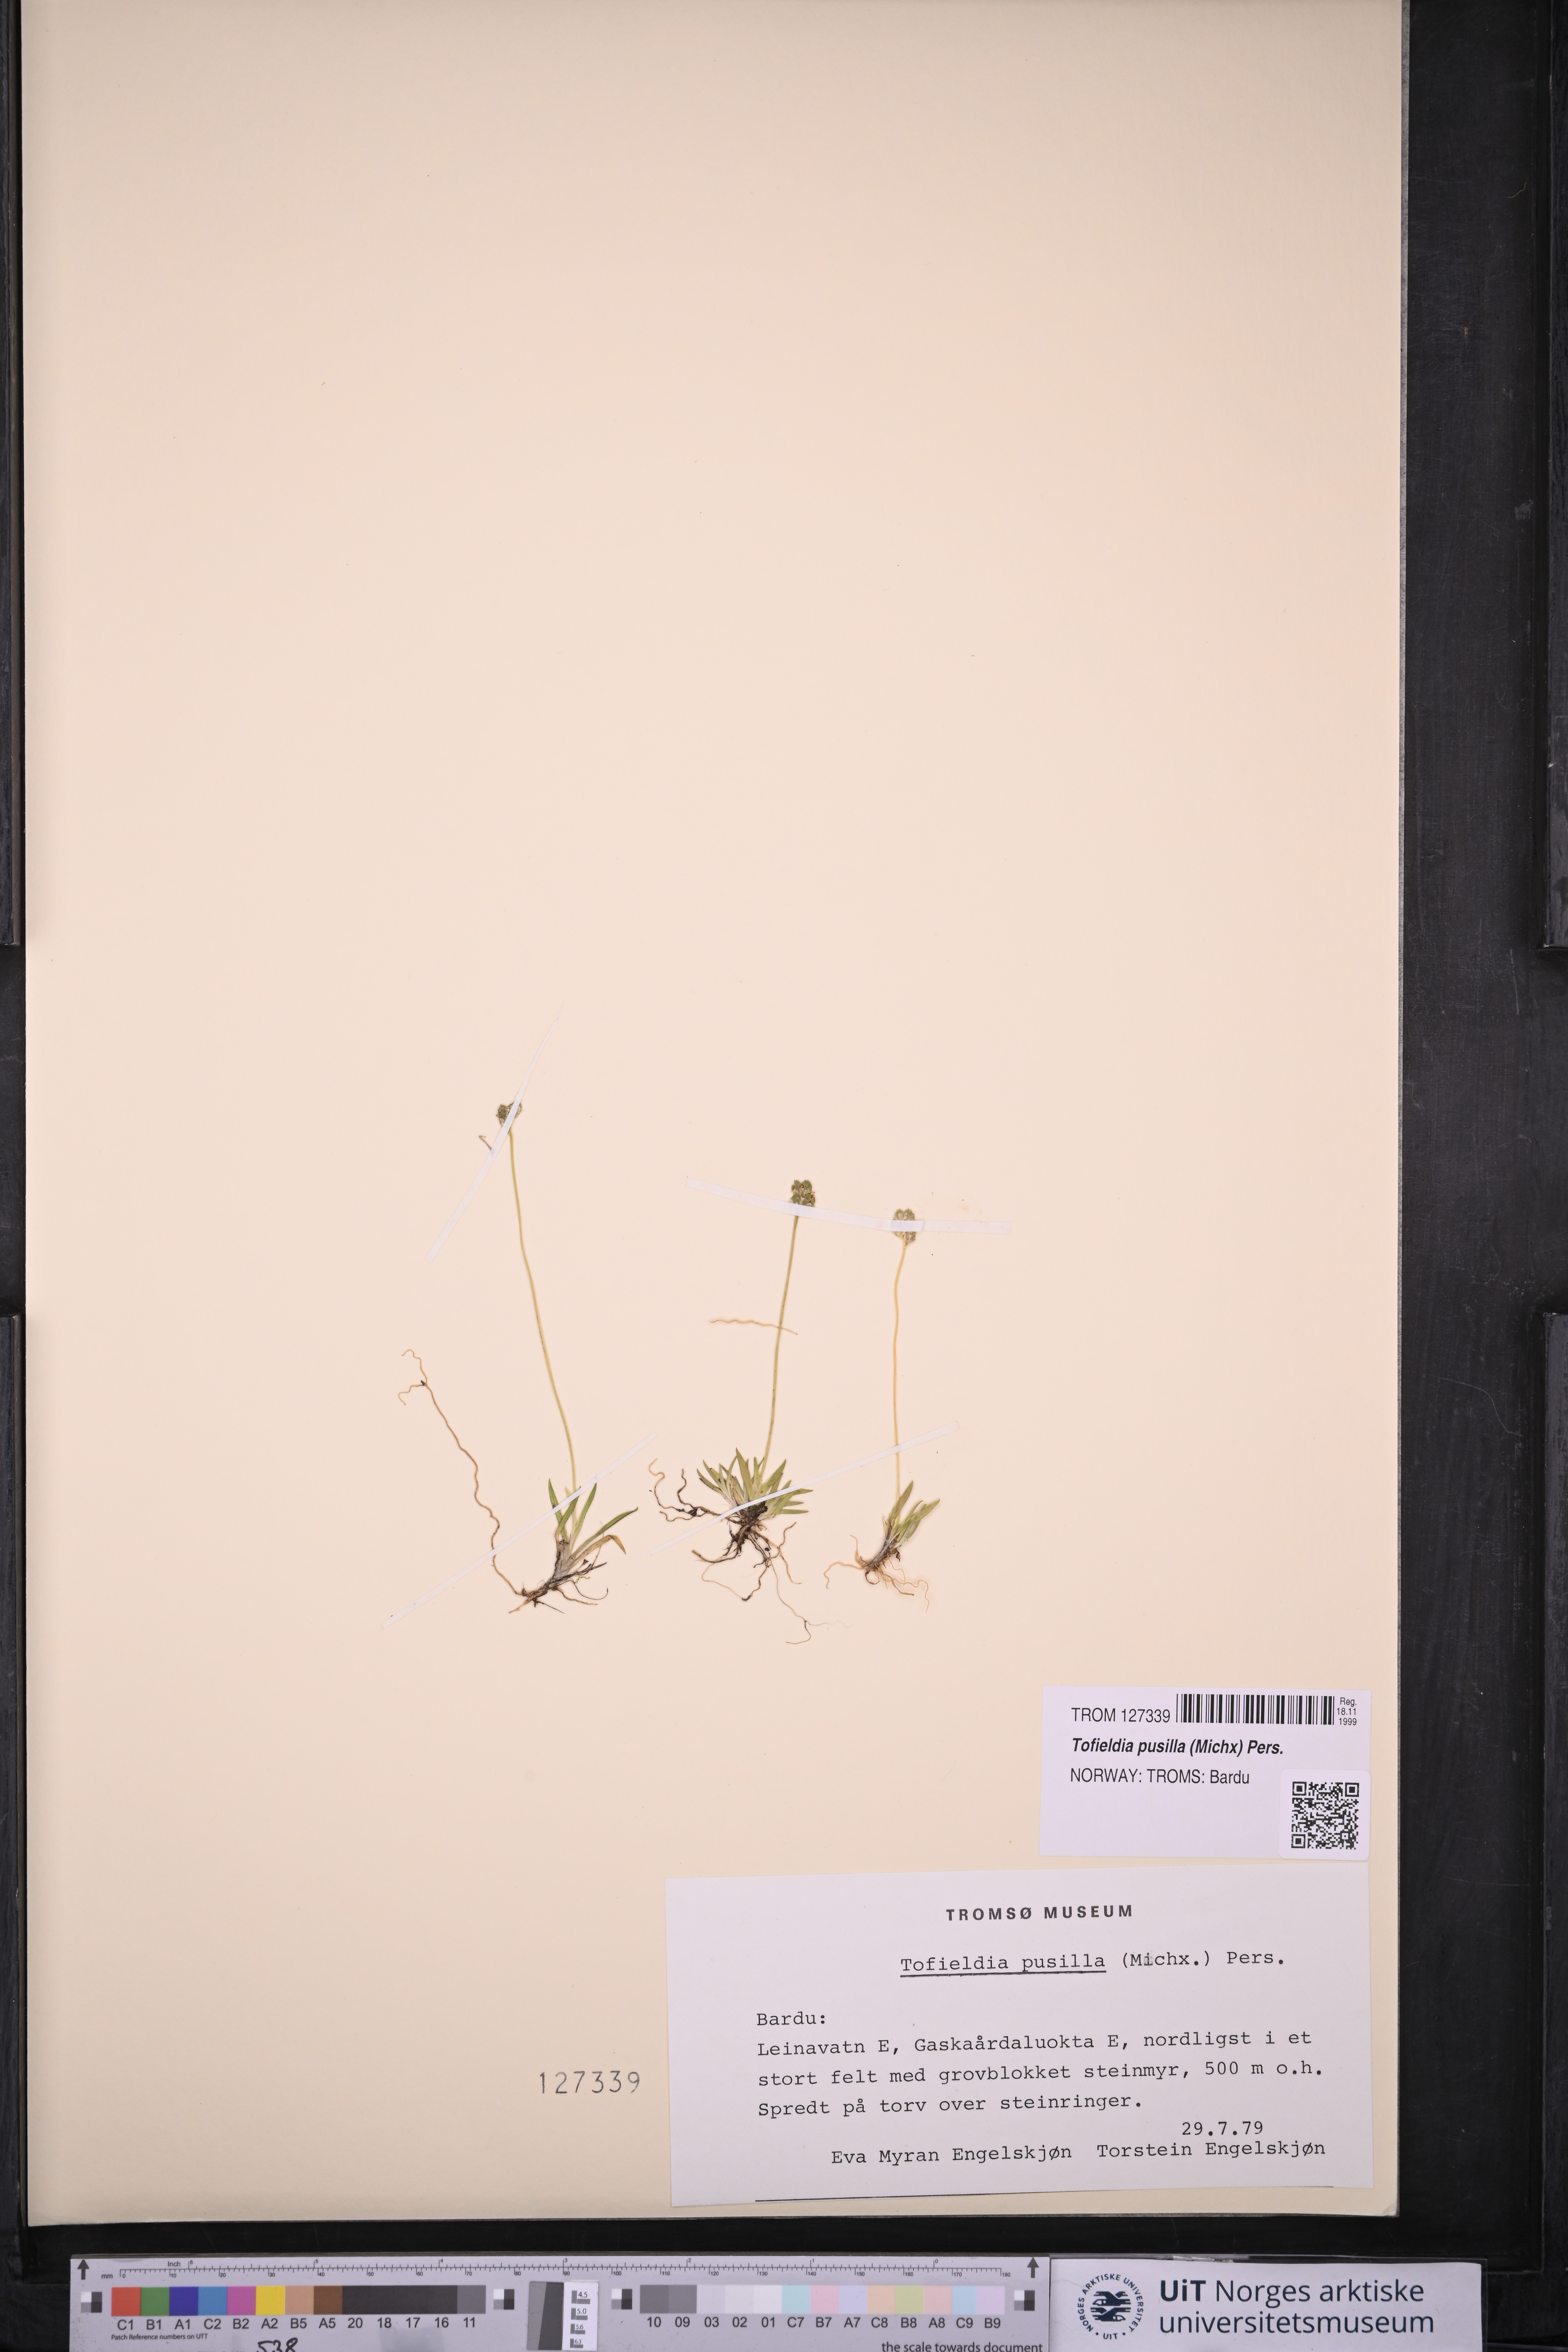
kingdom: Plantae
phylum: Tracheophyta
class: Liliopsida
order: Alismatales
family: Tofieldiaceae
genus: Tofieldia
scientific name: Tofieldia pusilla
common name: Scottish false asphodel
